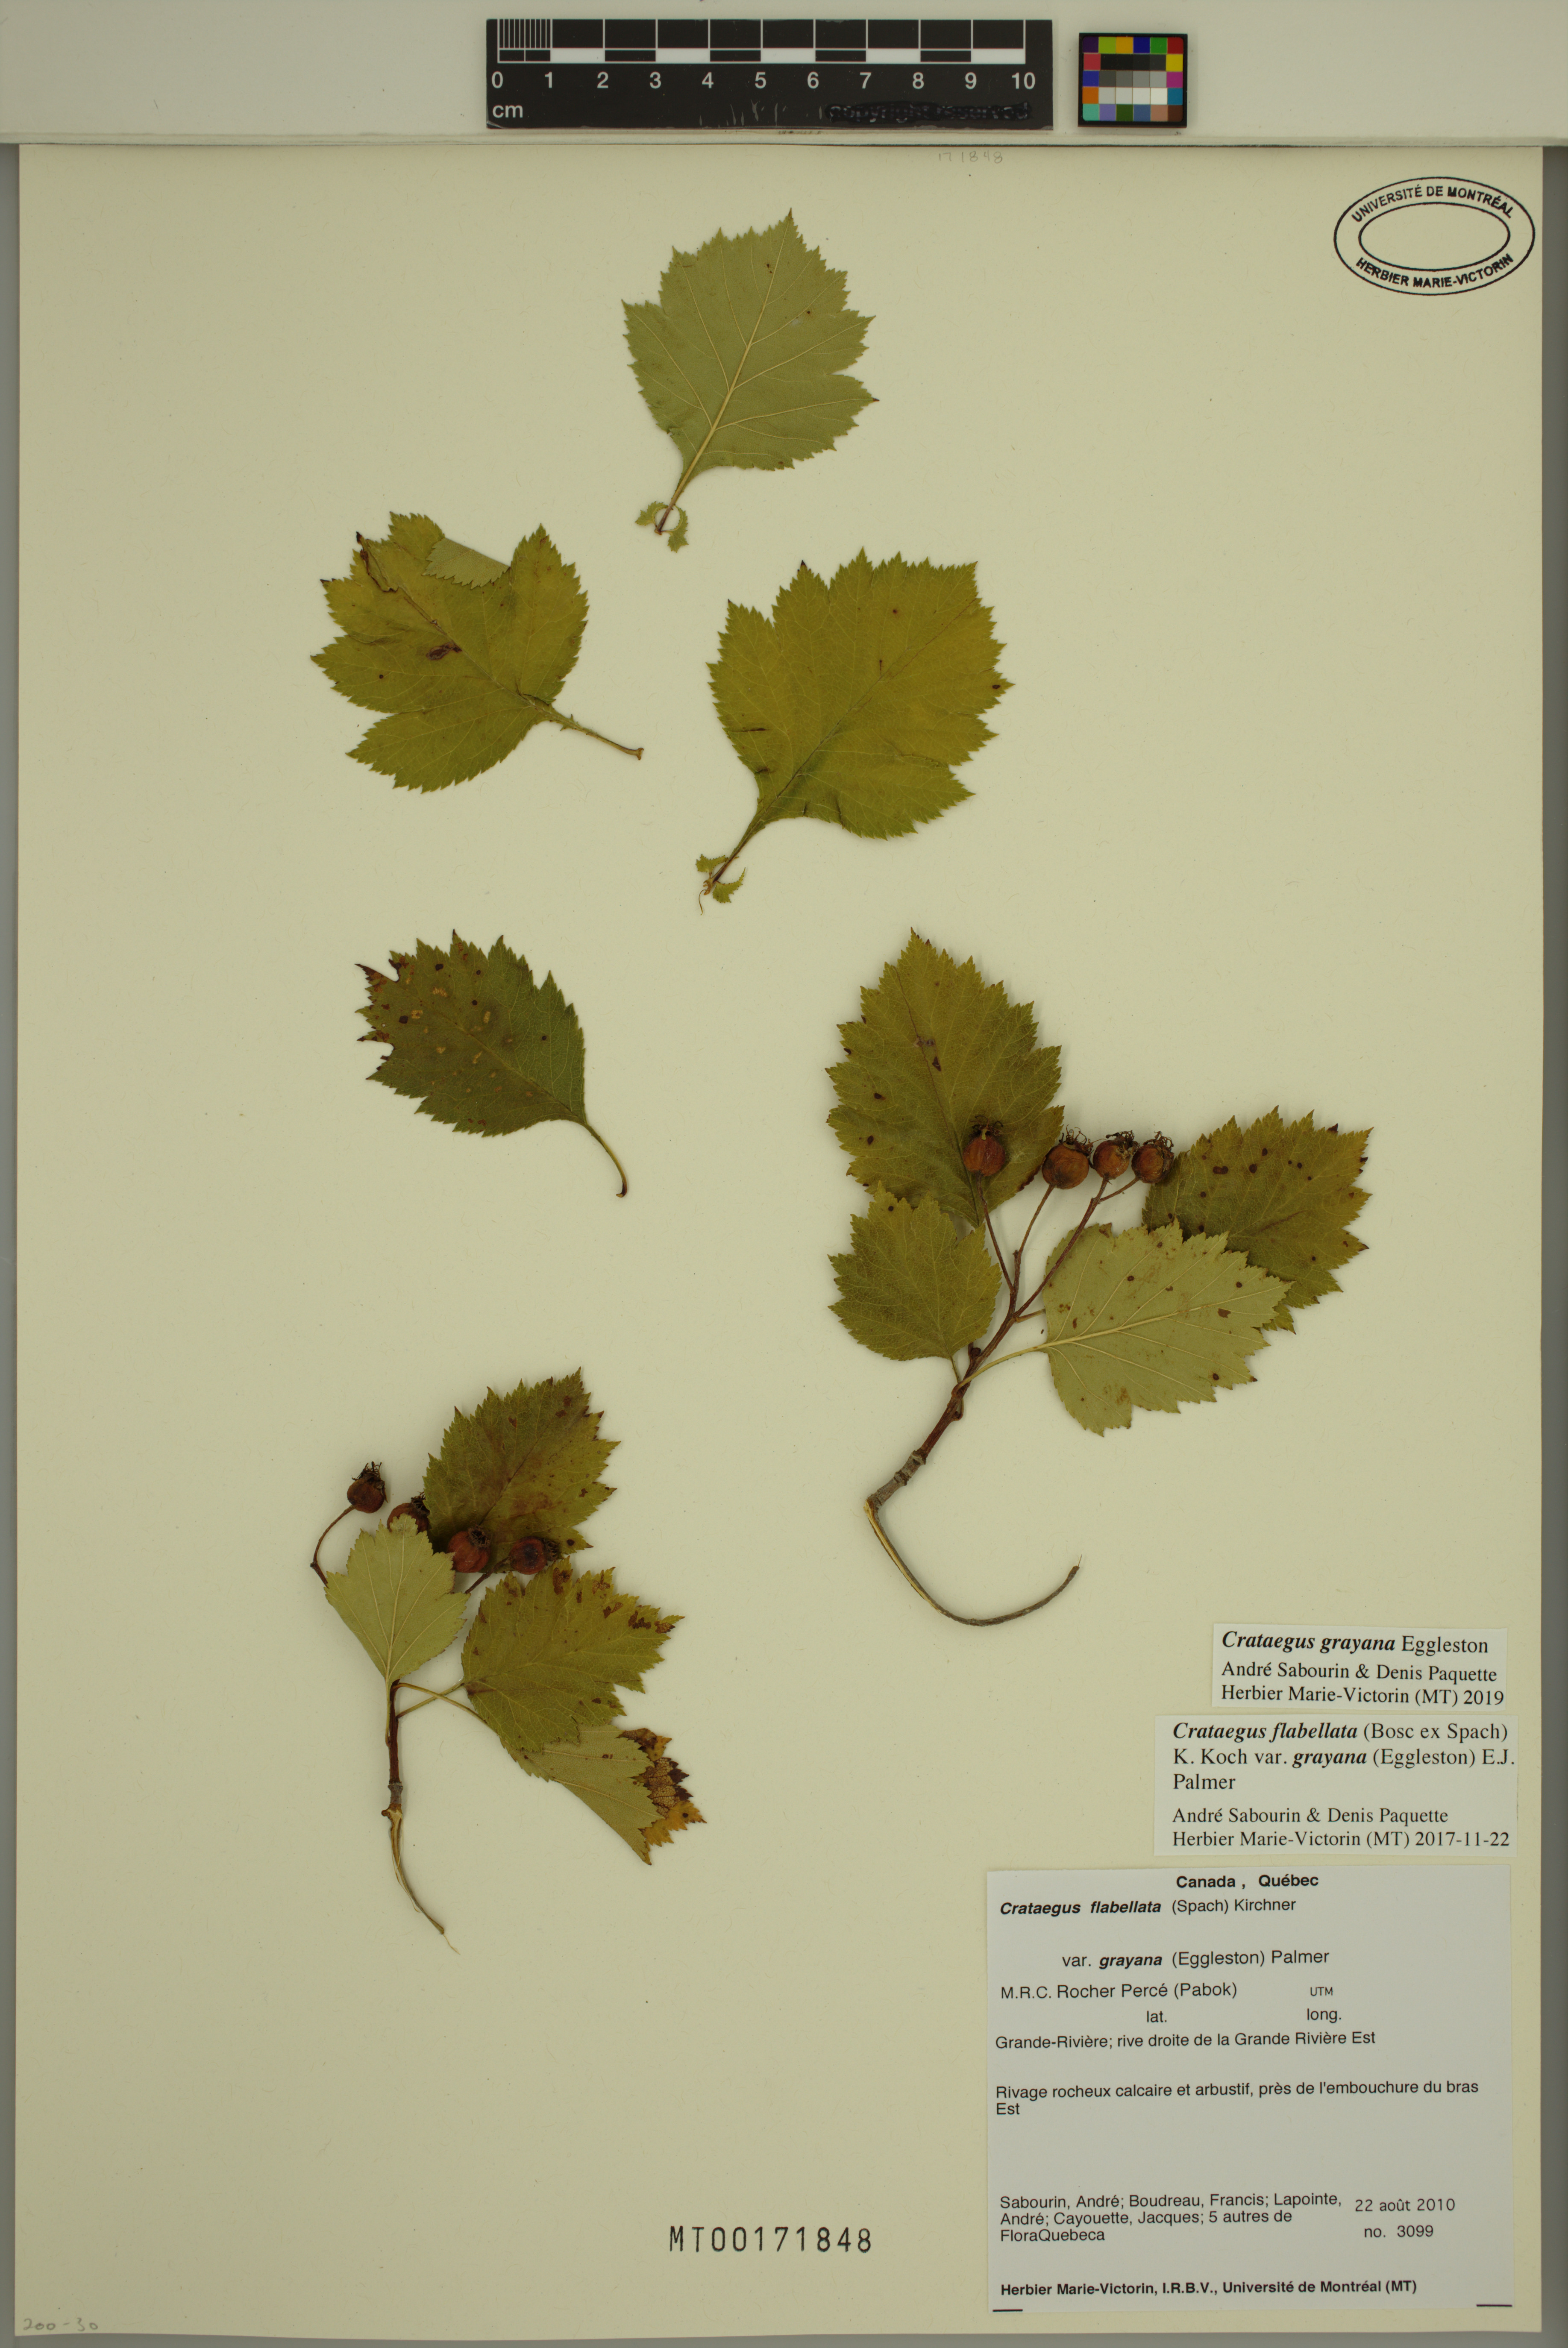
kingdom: Plantae
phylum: Tracheophyta
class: Magnoliopsida
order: Rosales
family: Rosaceae
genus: Crataegus
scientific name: Crataegus schuettei
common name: Schuette's hawthorn
